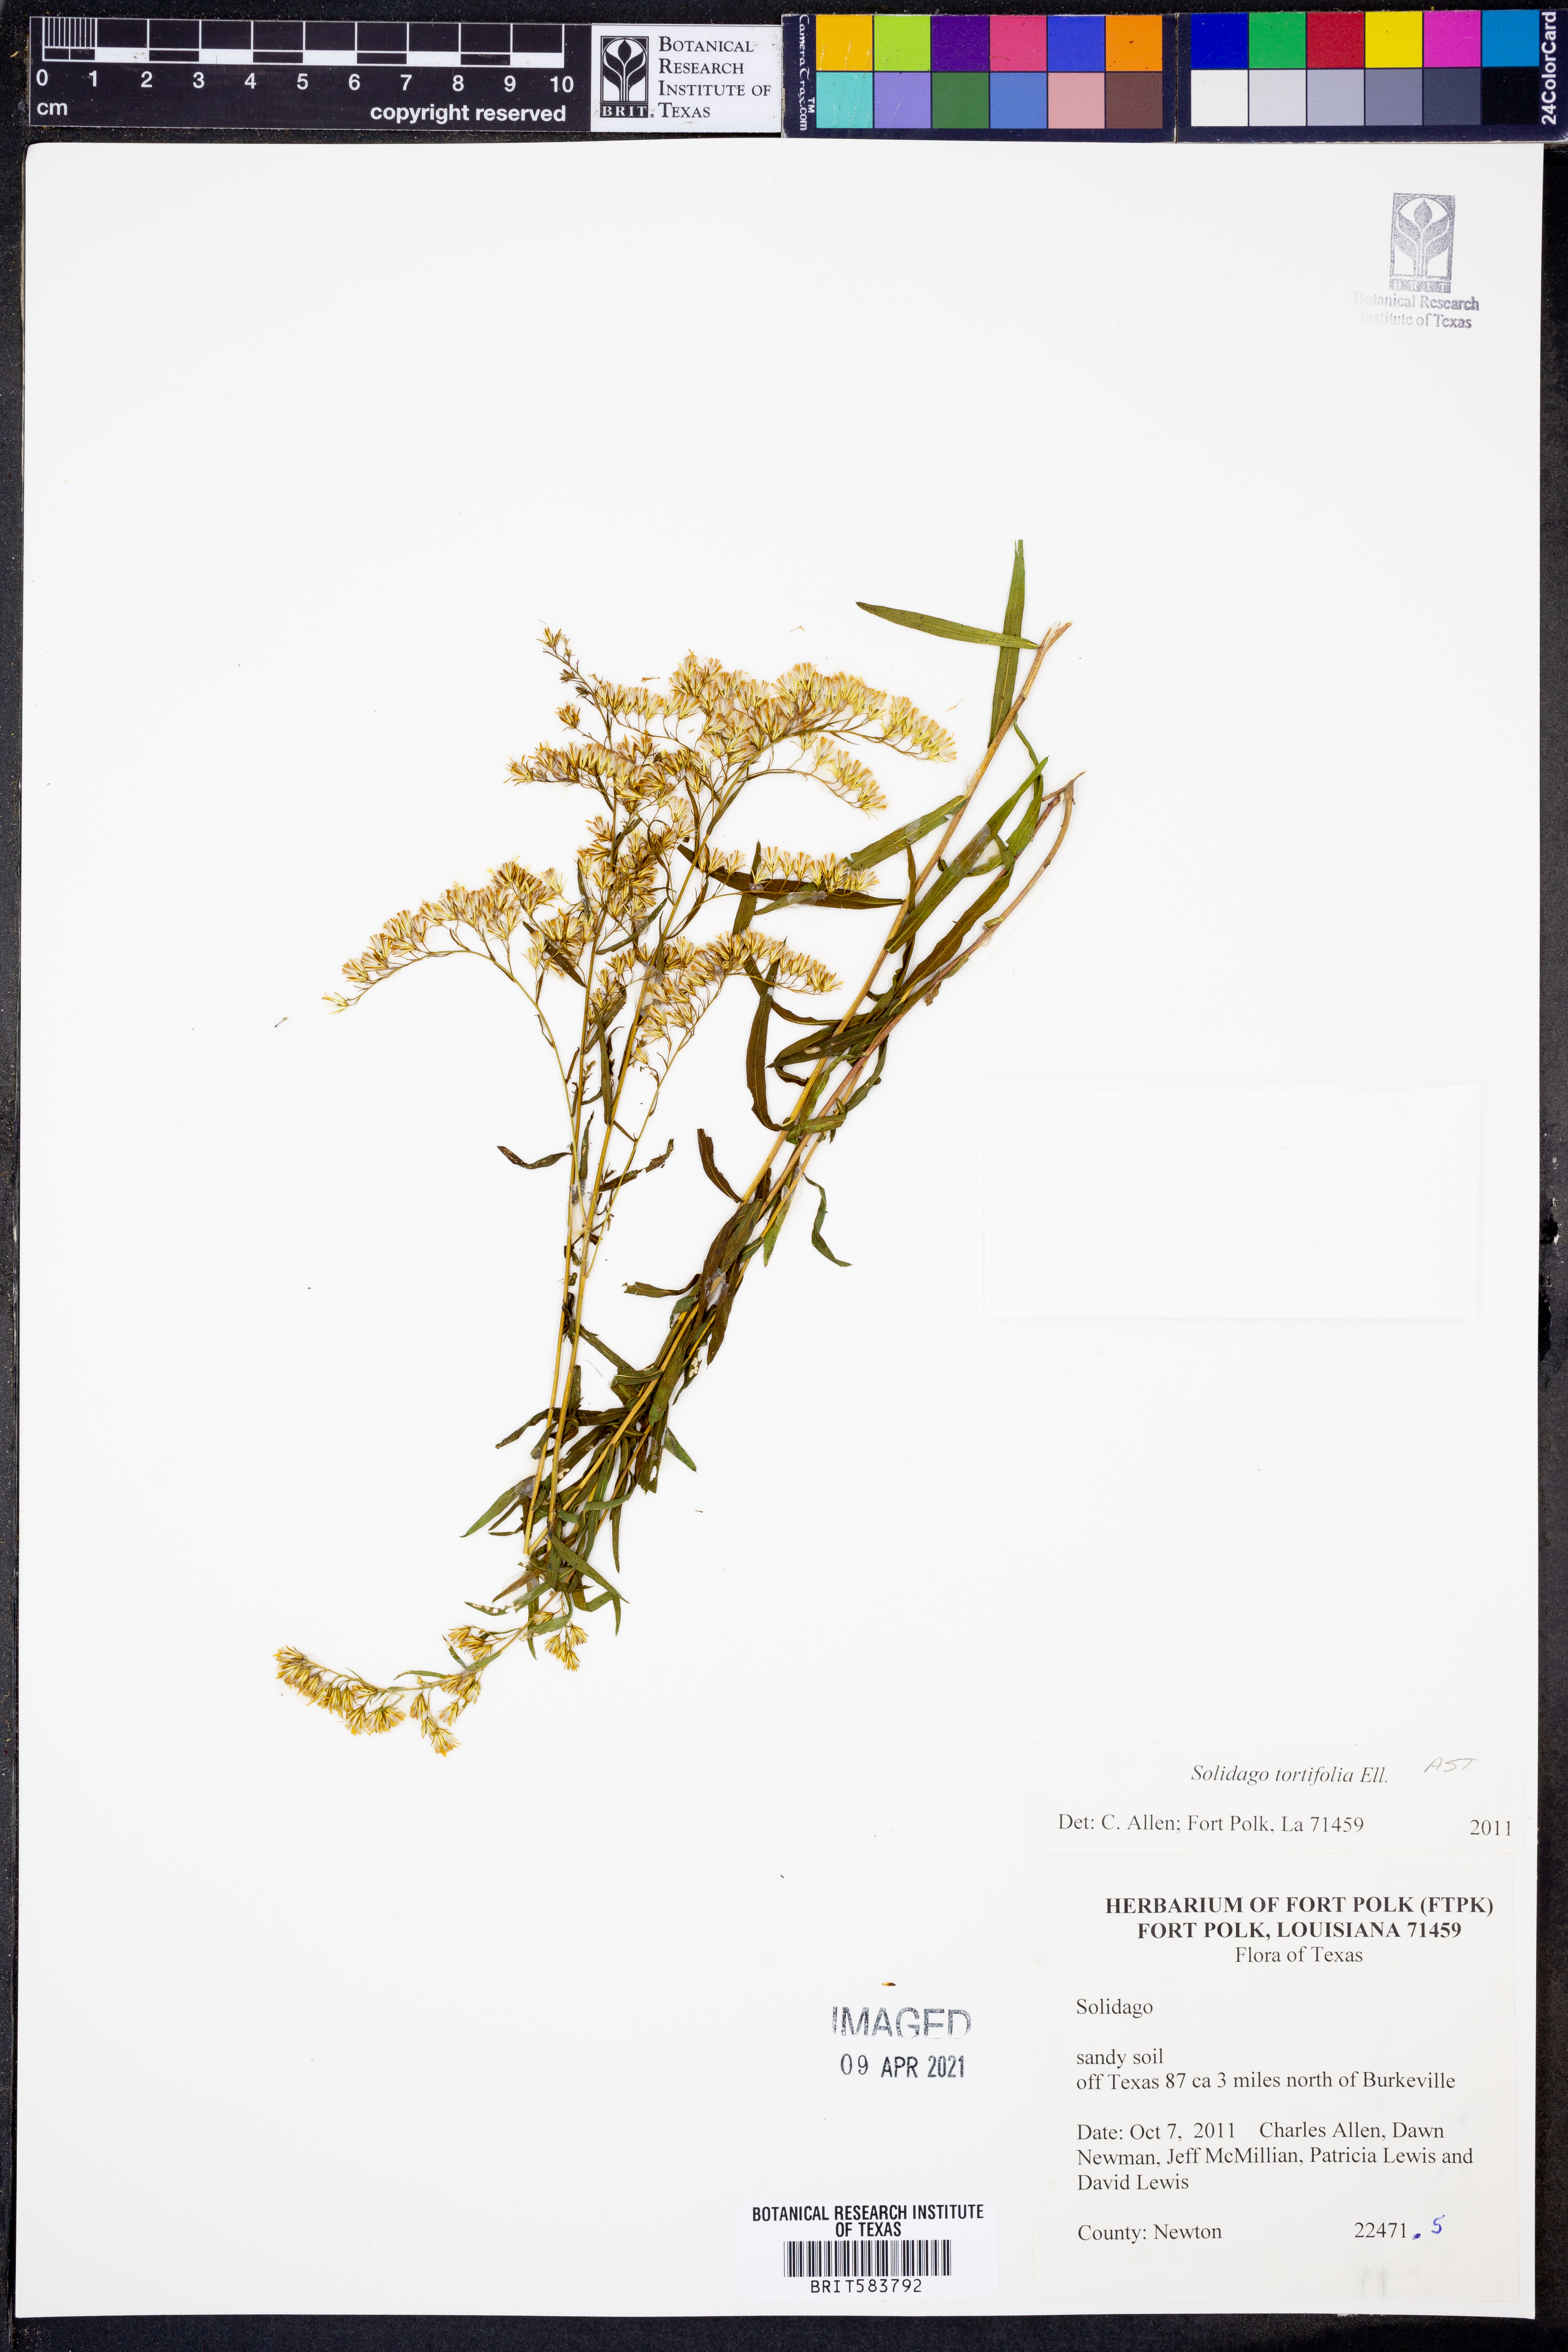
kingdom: Plantae
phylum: Tracheophyta
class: Magnoliopsida
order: Asterales
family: Asteraceae
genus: Solidago
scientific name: Solidago tortifolia
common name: Twisted-leaf goldenrod
